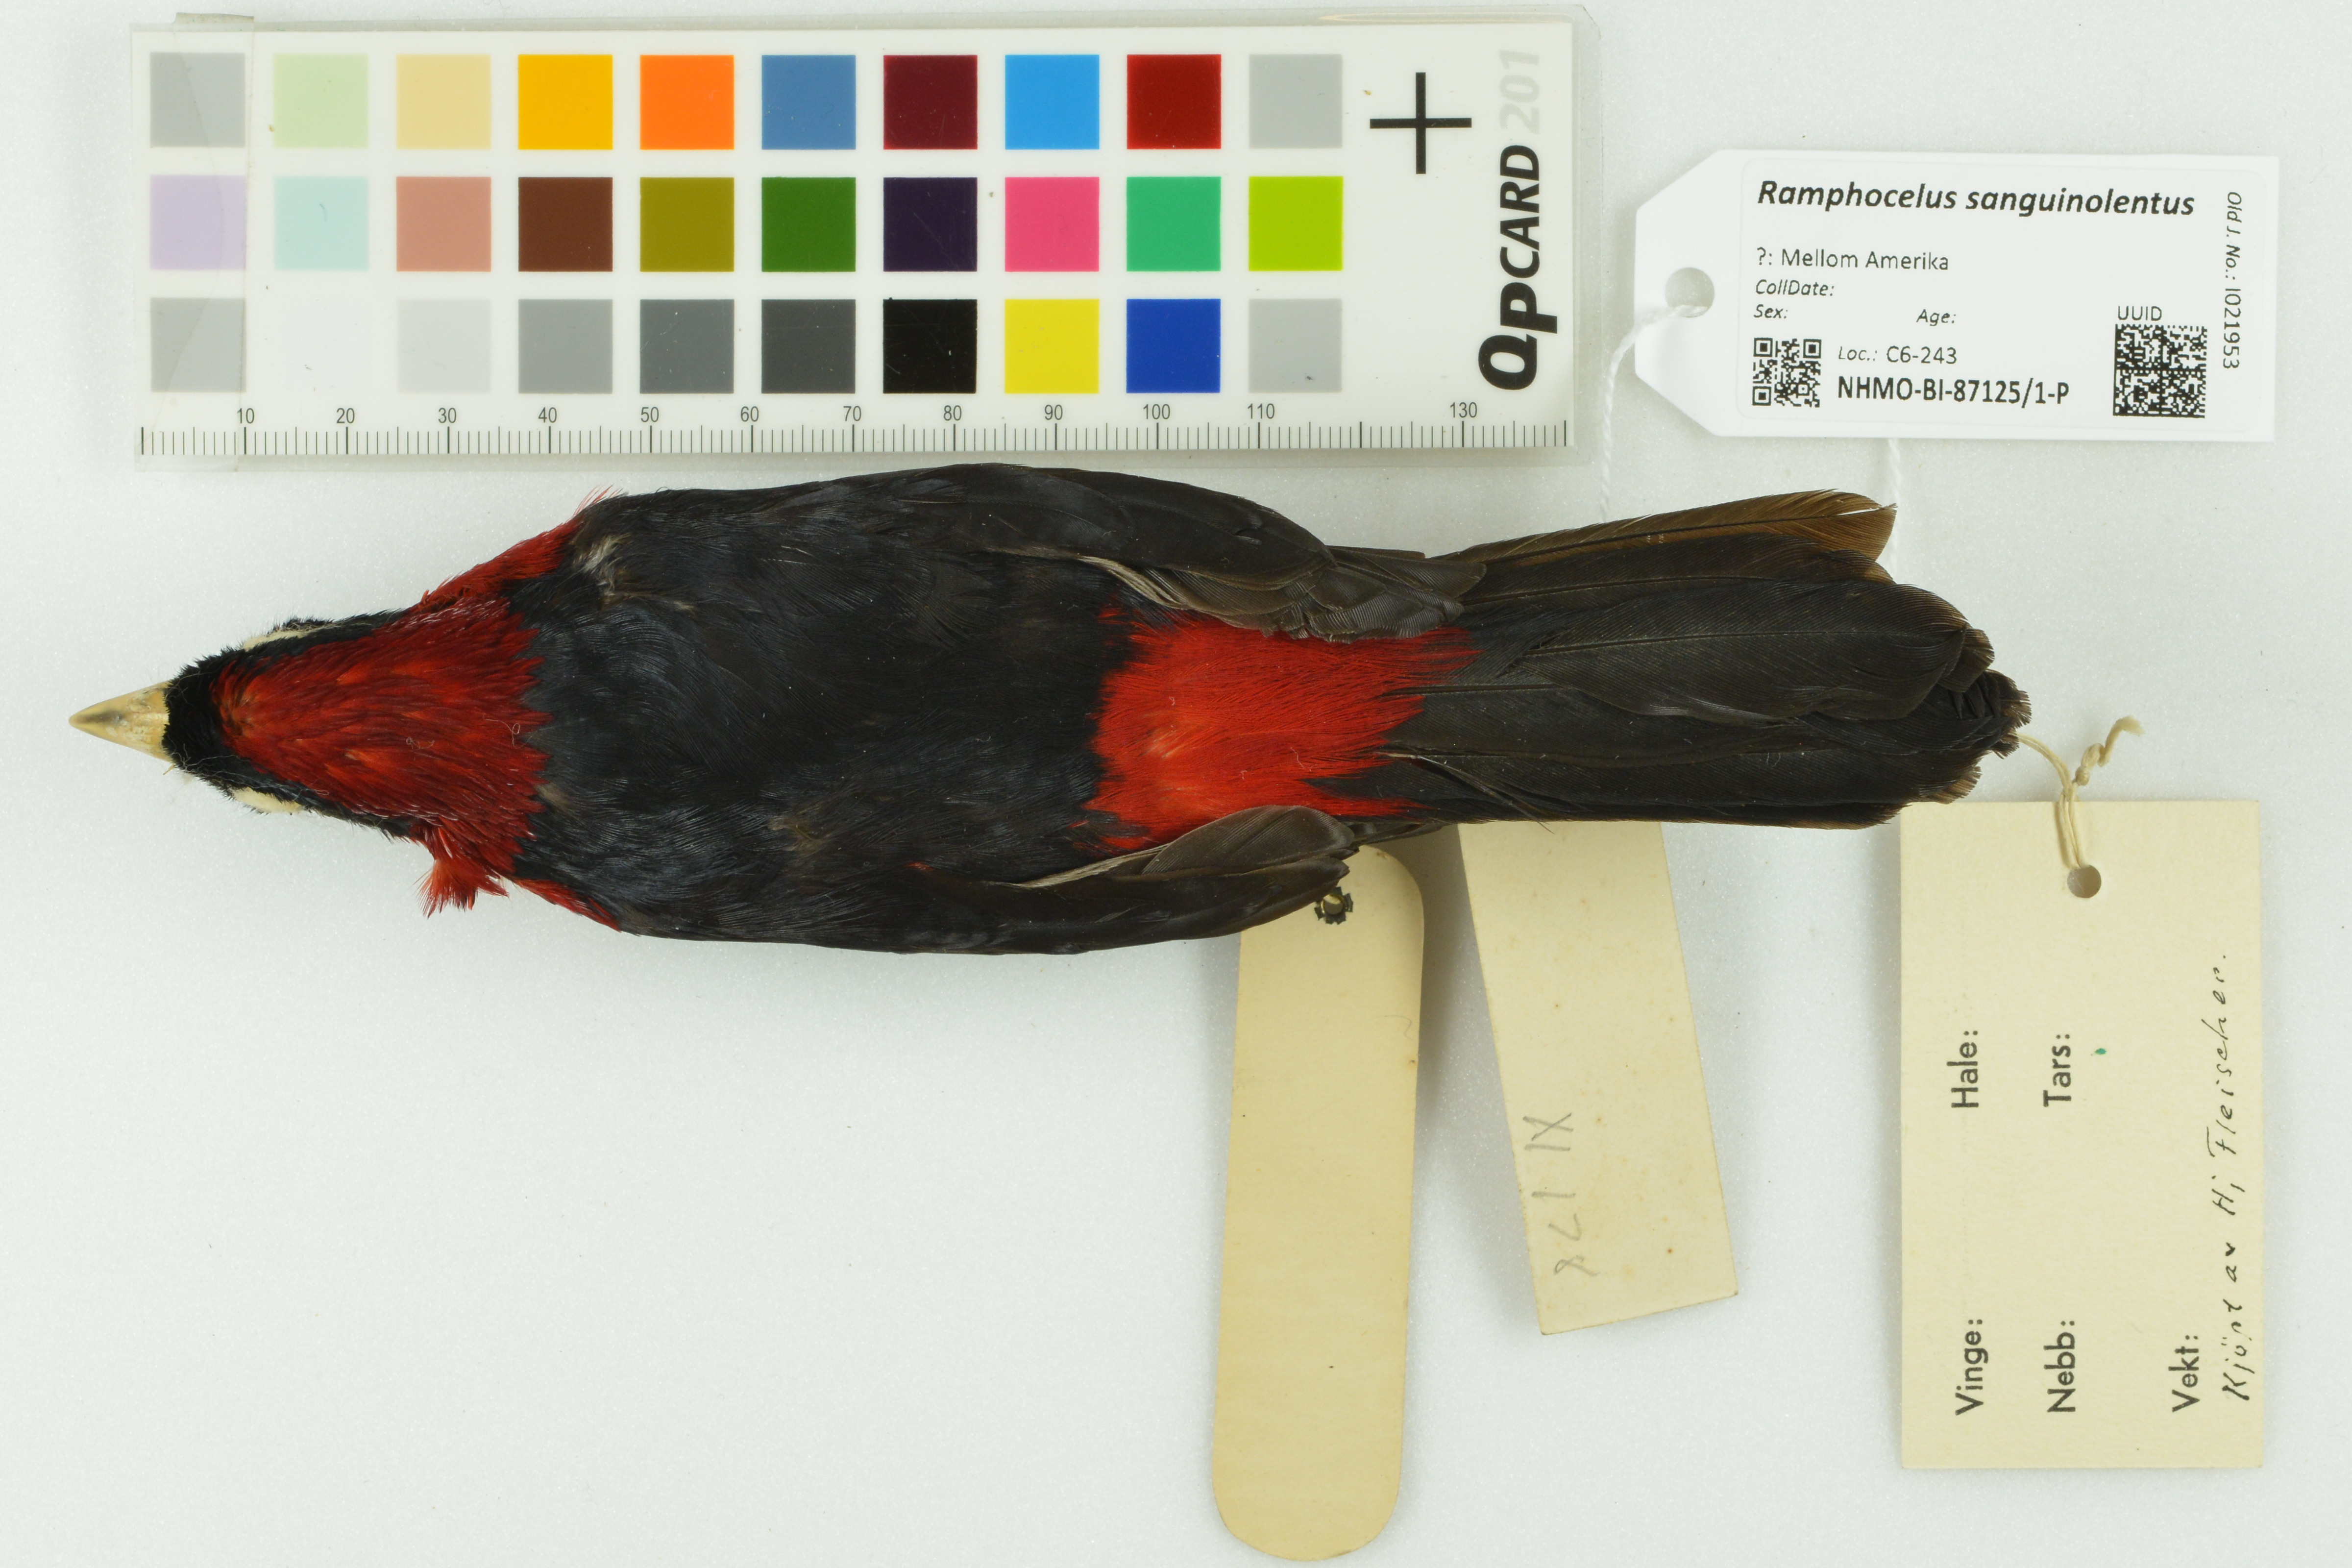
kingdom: Animalia
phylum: Chordata
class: Aves
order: Passeriformes
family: Thraupidae
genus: Ramphocelus
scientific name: Ramphocelus sanguinolentus
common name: Crimson-collared tanager
